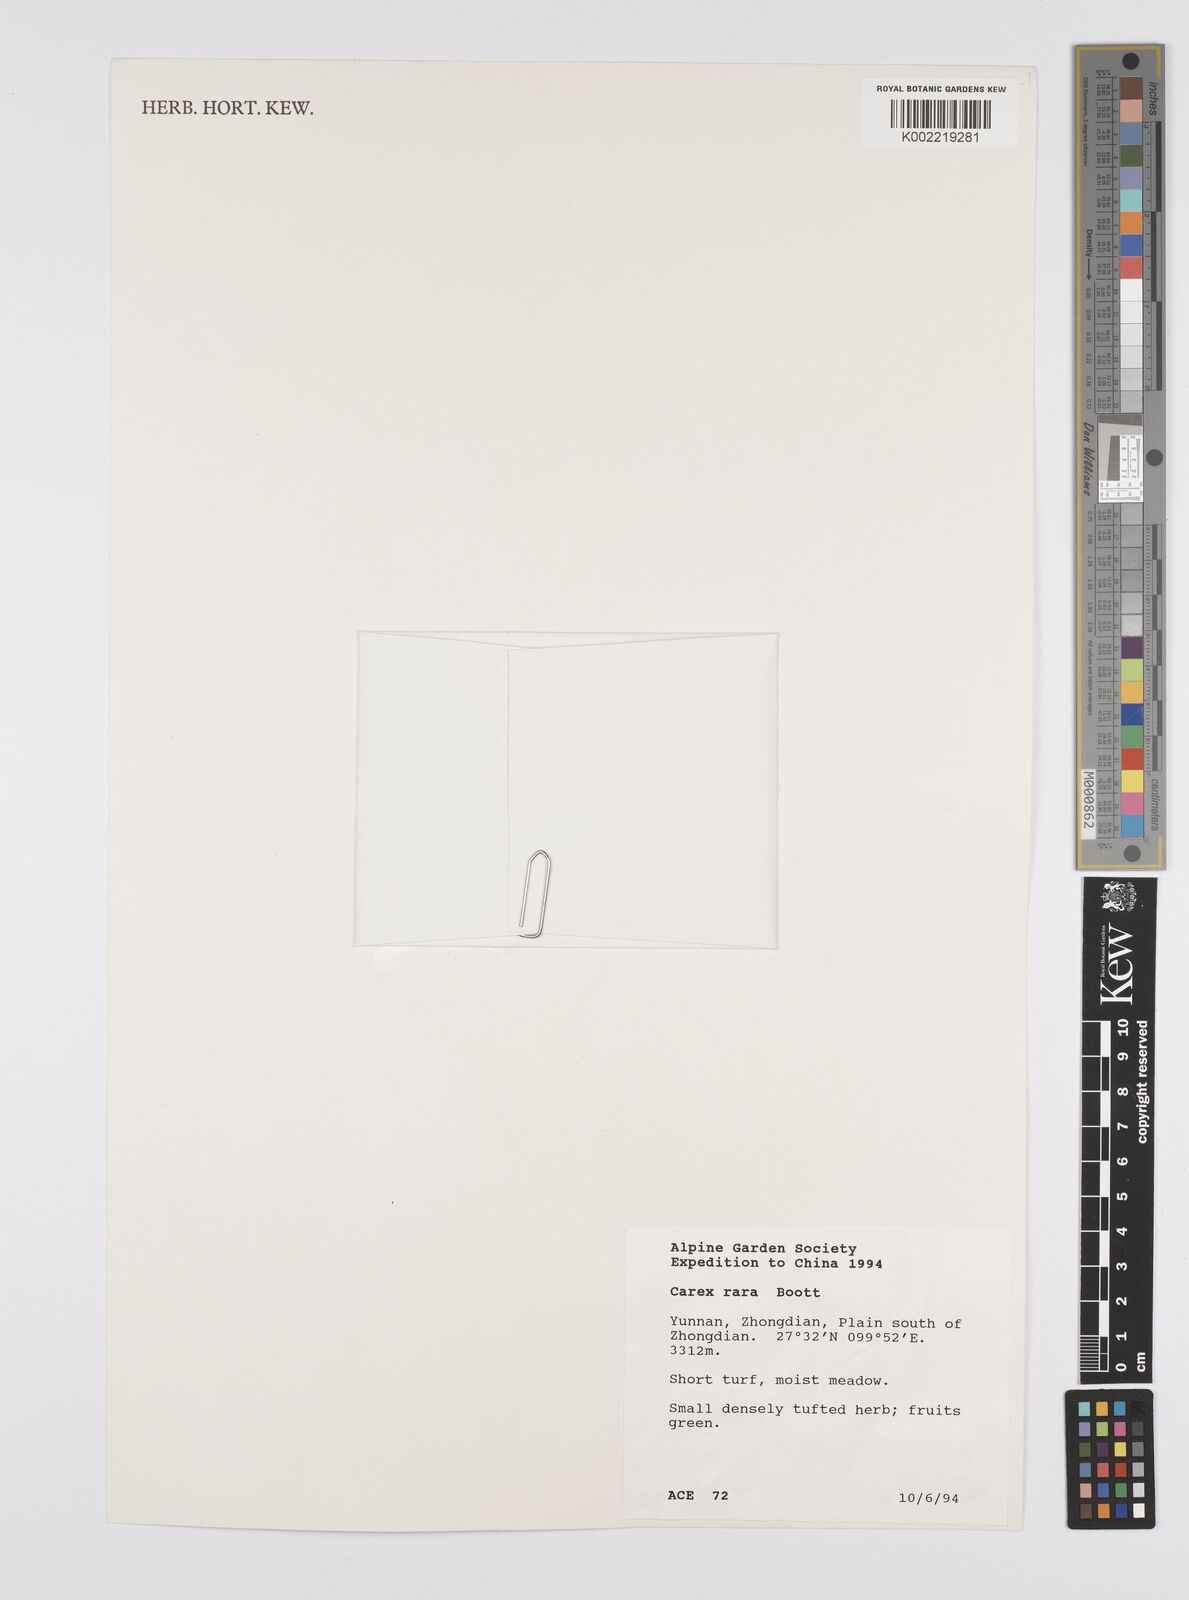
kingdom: Plantae
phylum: Tracheophyta
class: Liliopsida
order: Poales
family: Cyperaceae
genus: Carex
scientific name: Carex rara
